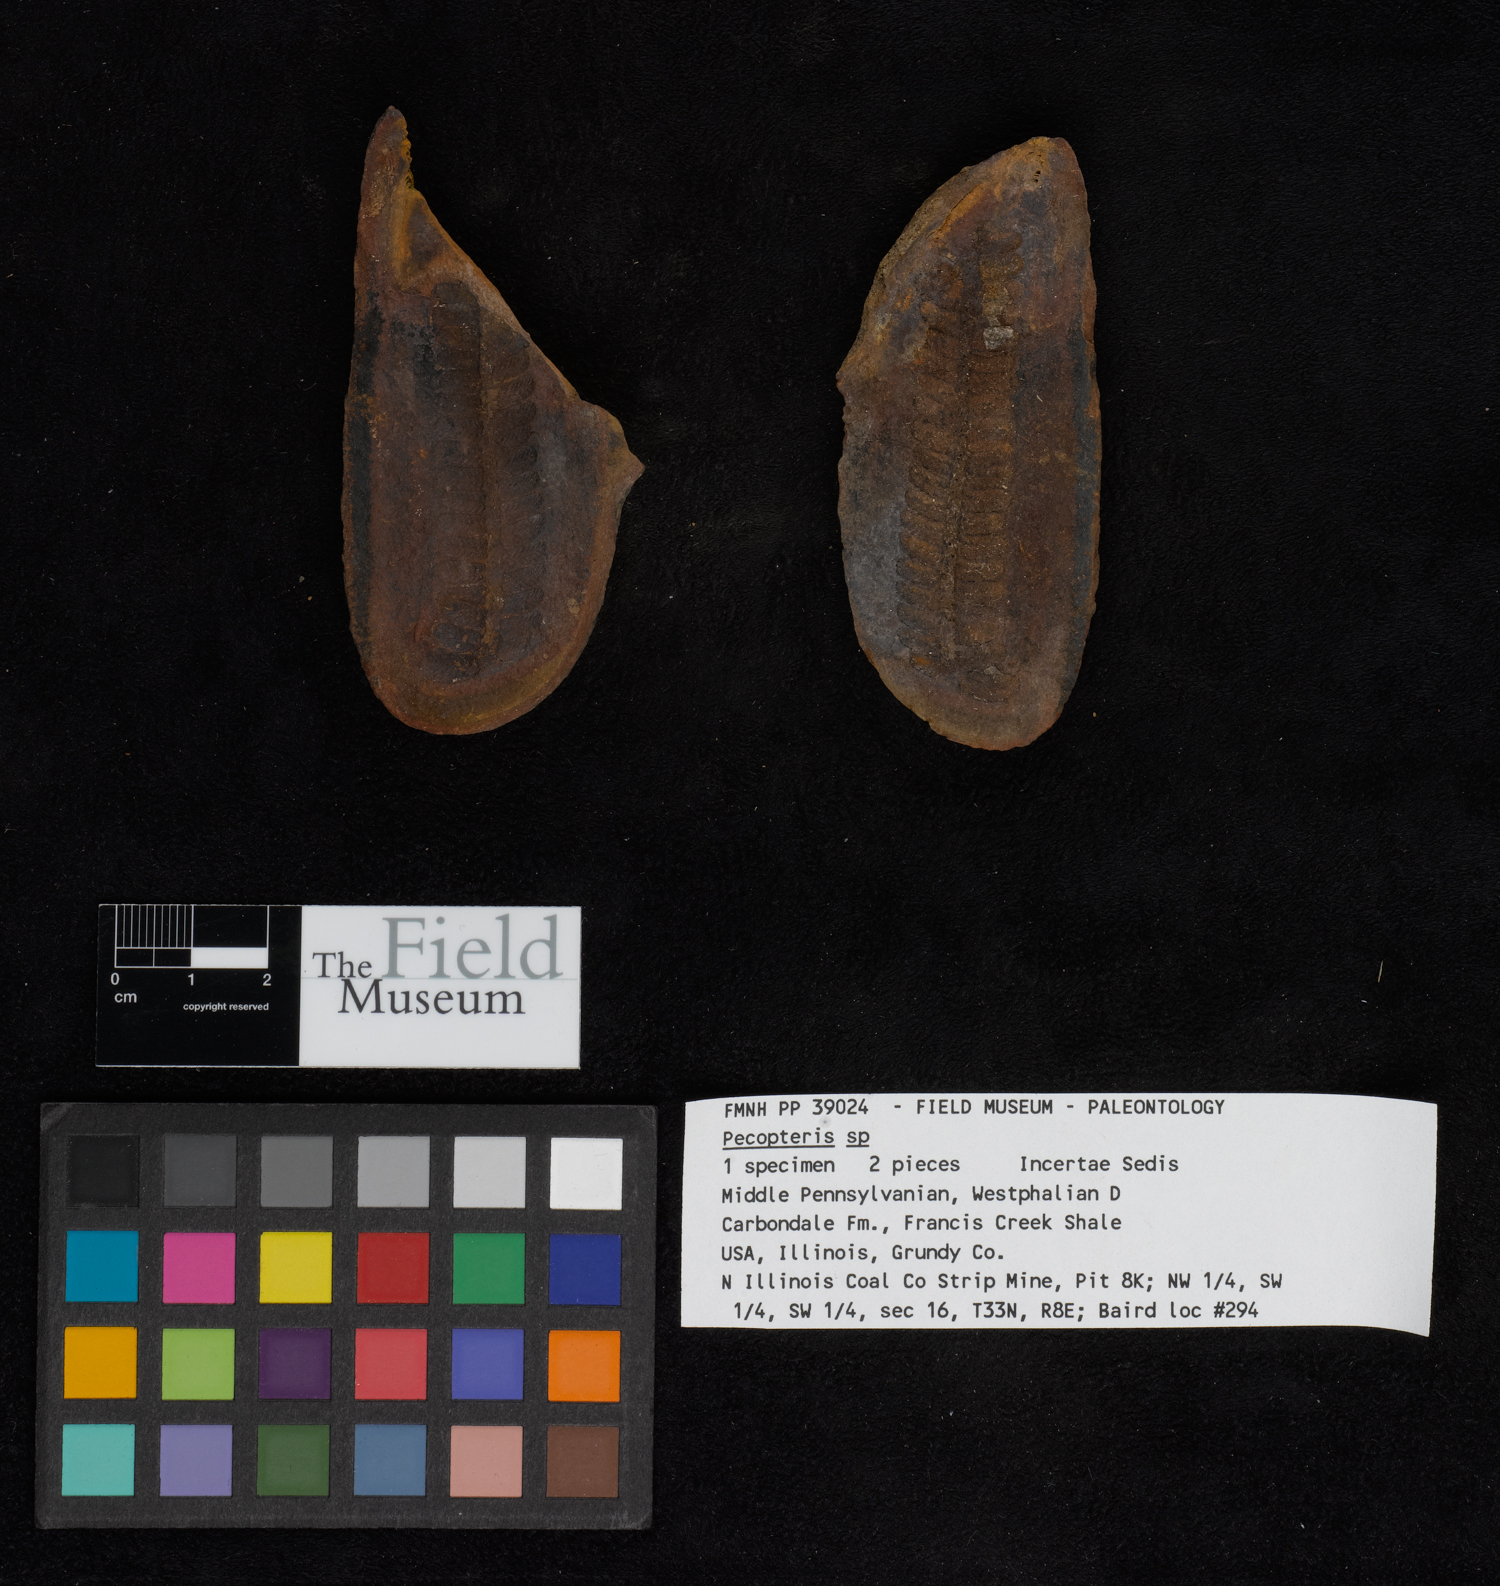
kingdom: Plantae
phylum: Tracheophyta
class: Polypodiopsida
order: Marattiales
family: Asterothecaceae
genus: Pecopteris
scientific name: Pecopteris
